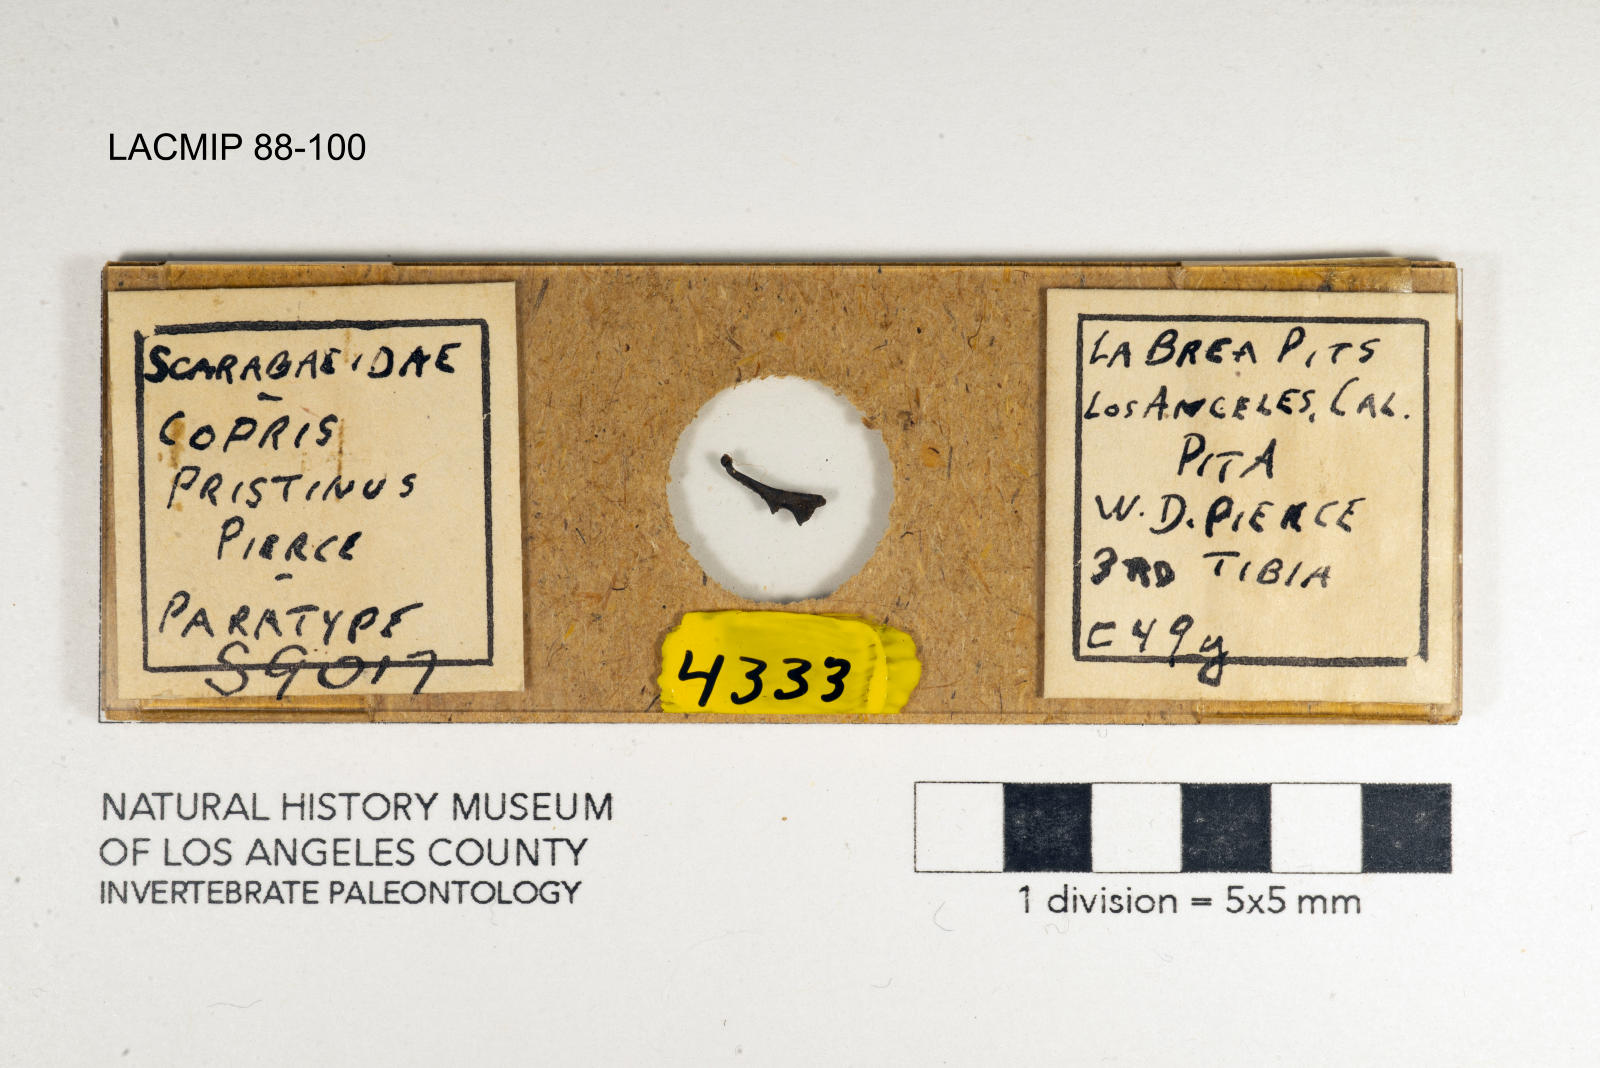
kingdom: Animalia
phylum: Arthropoda
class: Insecta
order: Coleoptera
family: Scarabaeidae
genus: Copris
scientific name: Copris pristinus
